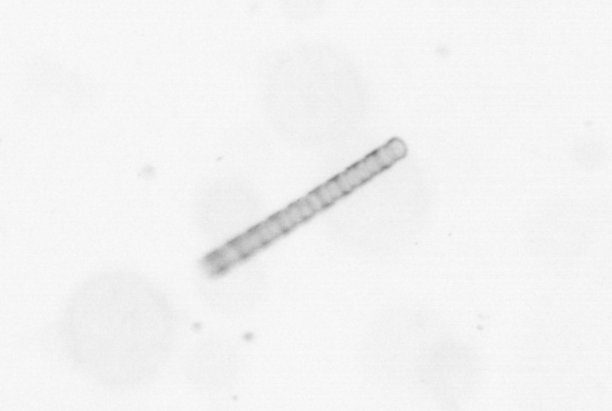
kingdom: Chromista
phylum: Ochrophyta
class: Bacillariophyceae
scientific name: Bacillariophyceae
